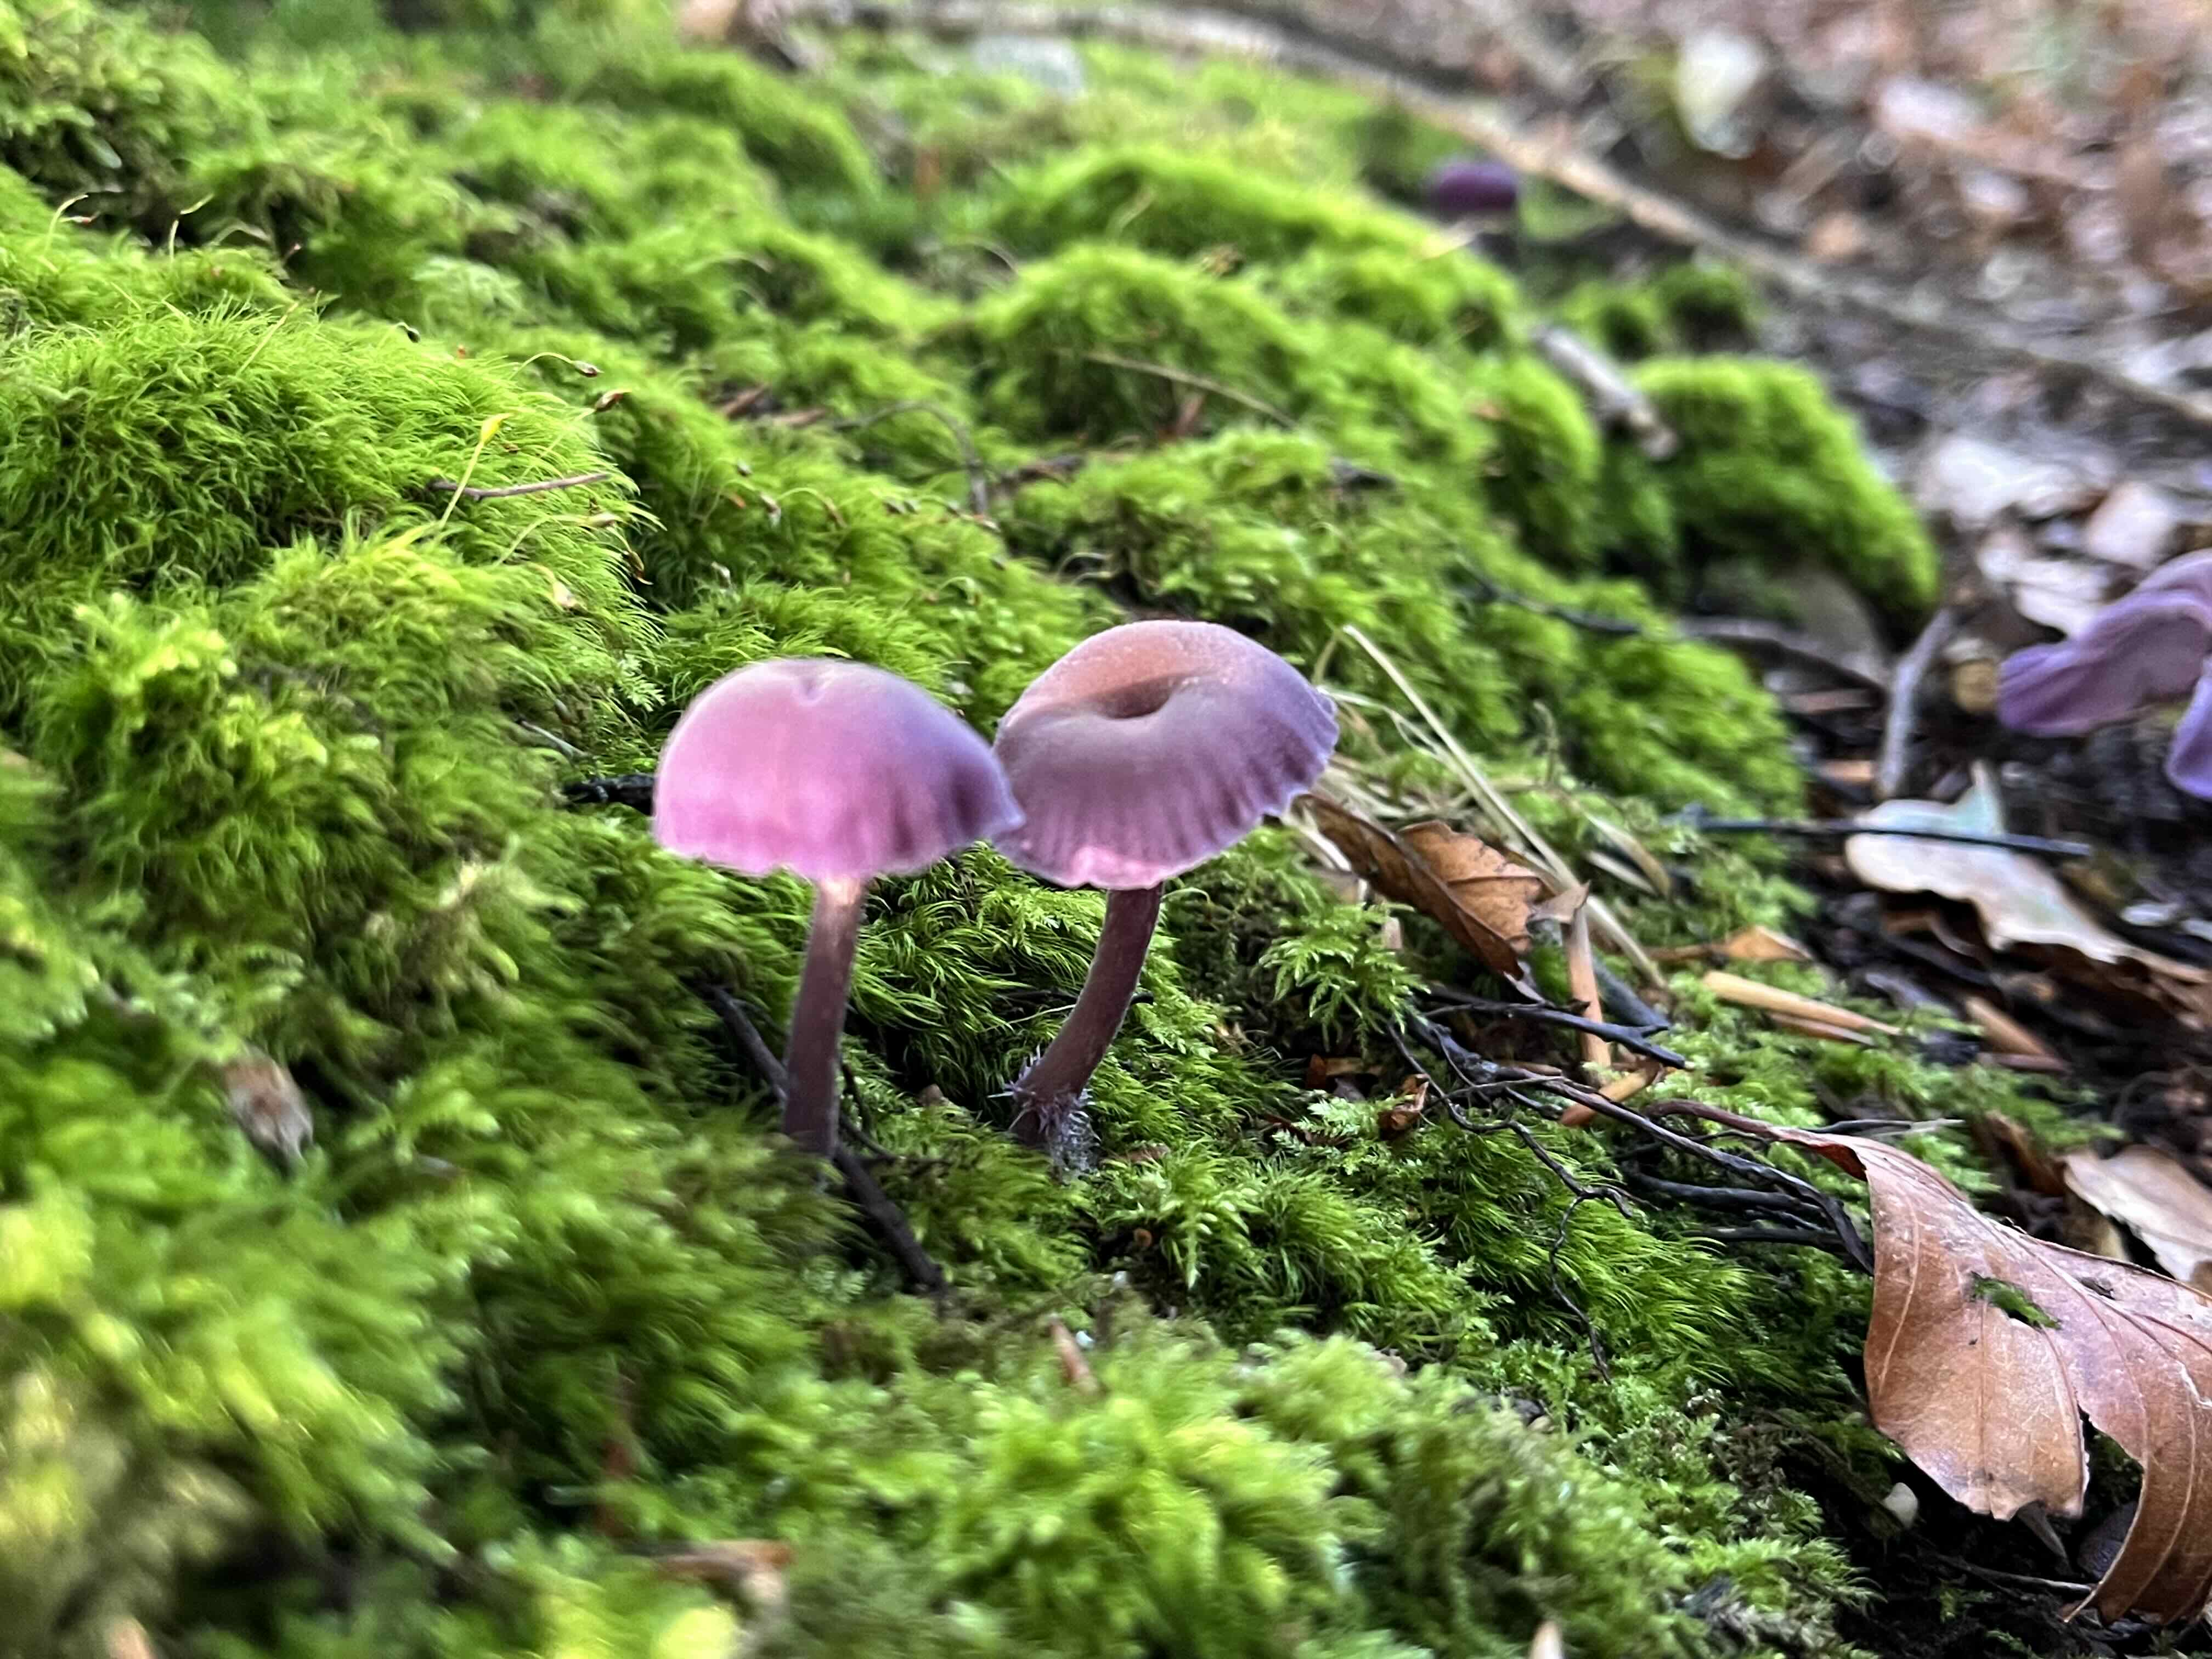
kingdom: Fungi
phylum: Basidiomycota
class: Agaricomycetes
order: Agaricales
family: Hydnangiaceae
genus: Laccaria
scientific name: Laccaria amethystina
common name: violet ametysthat
